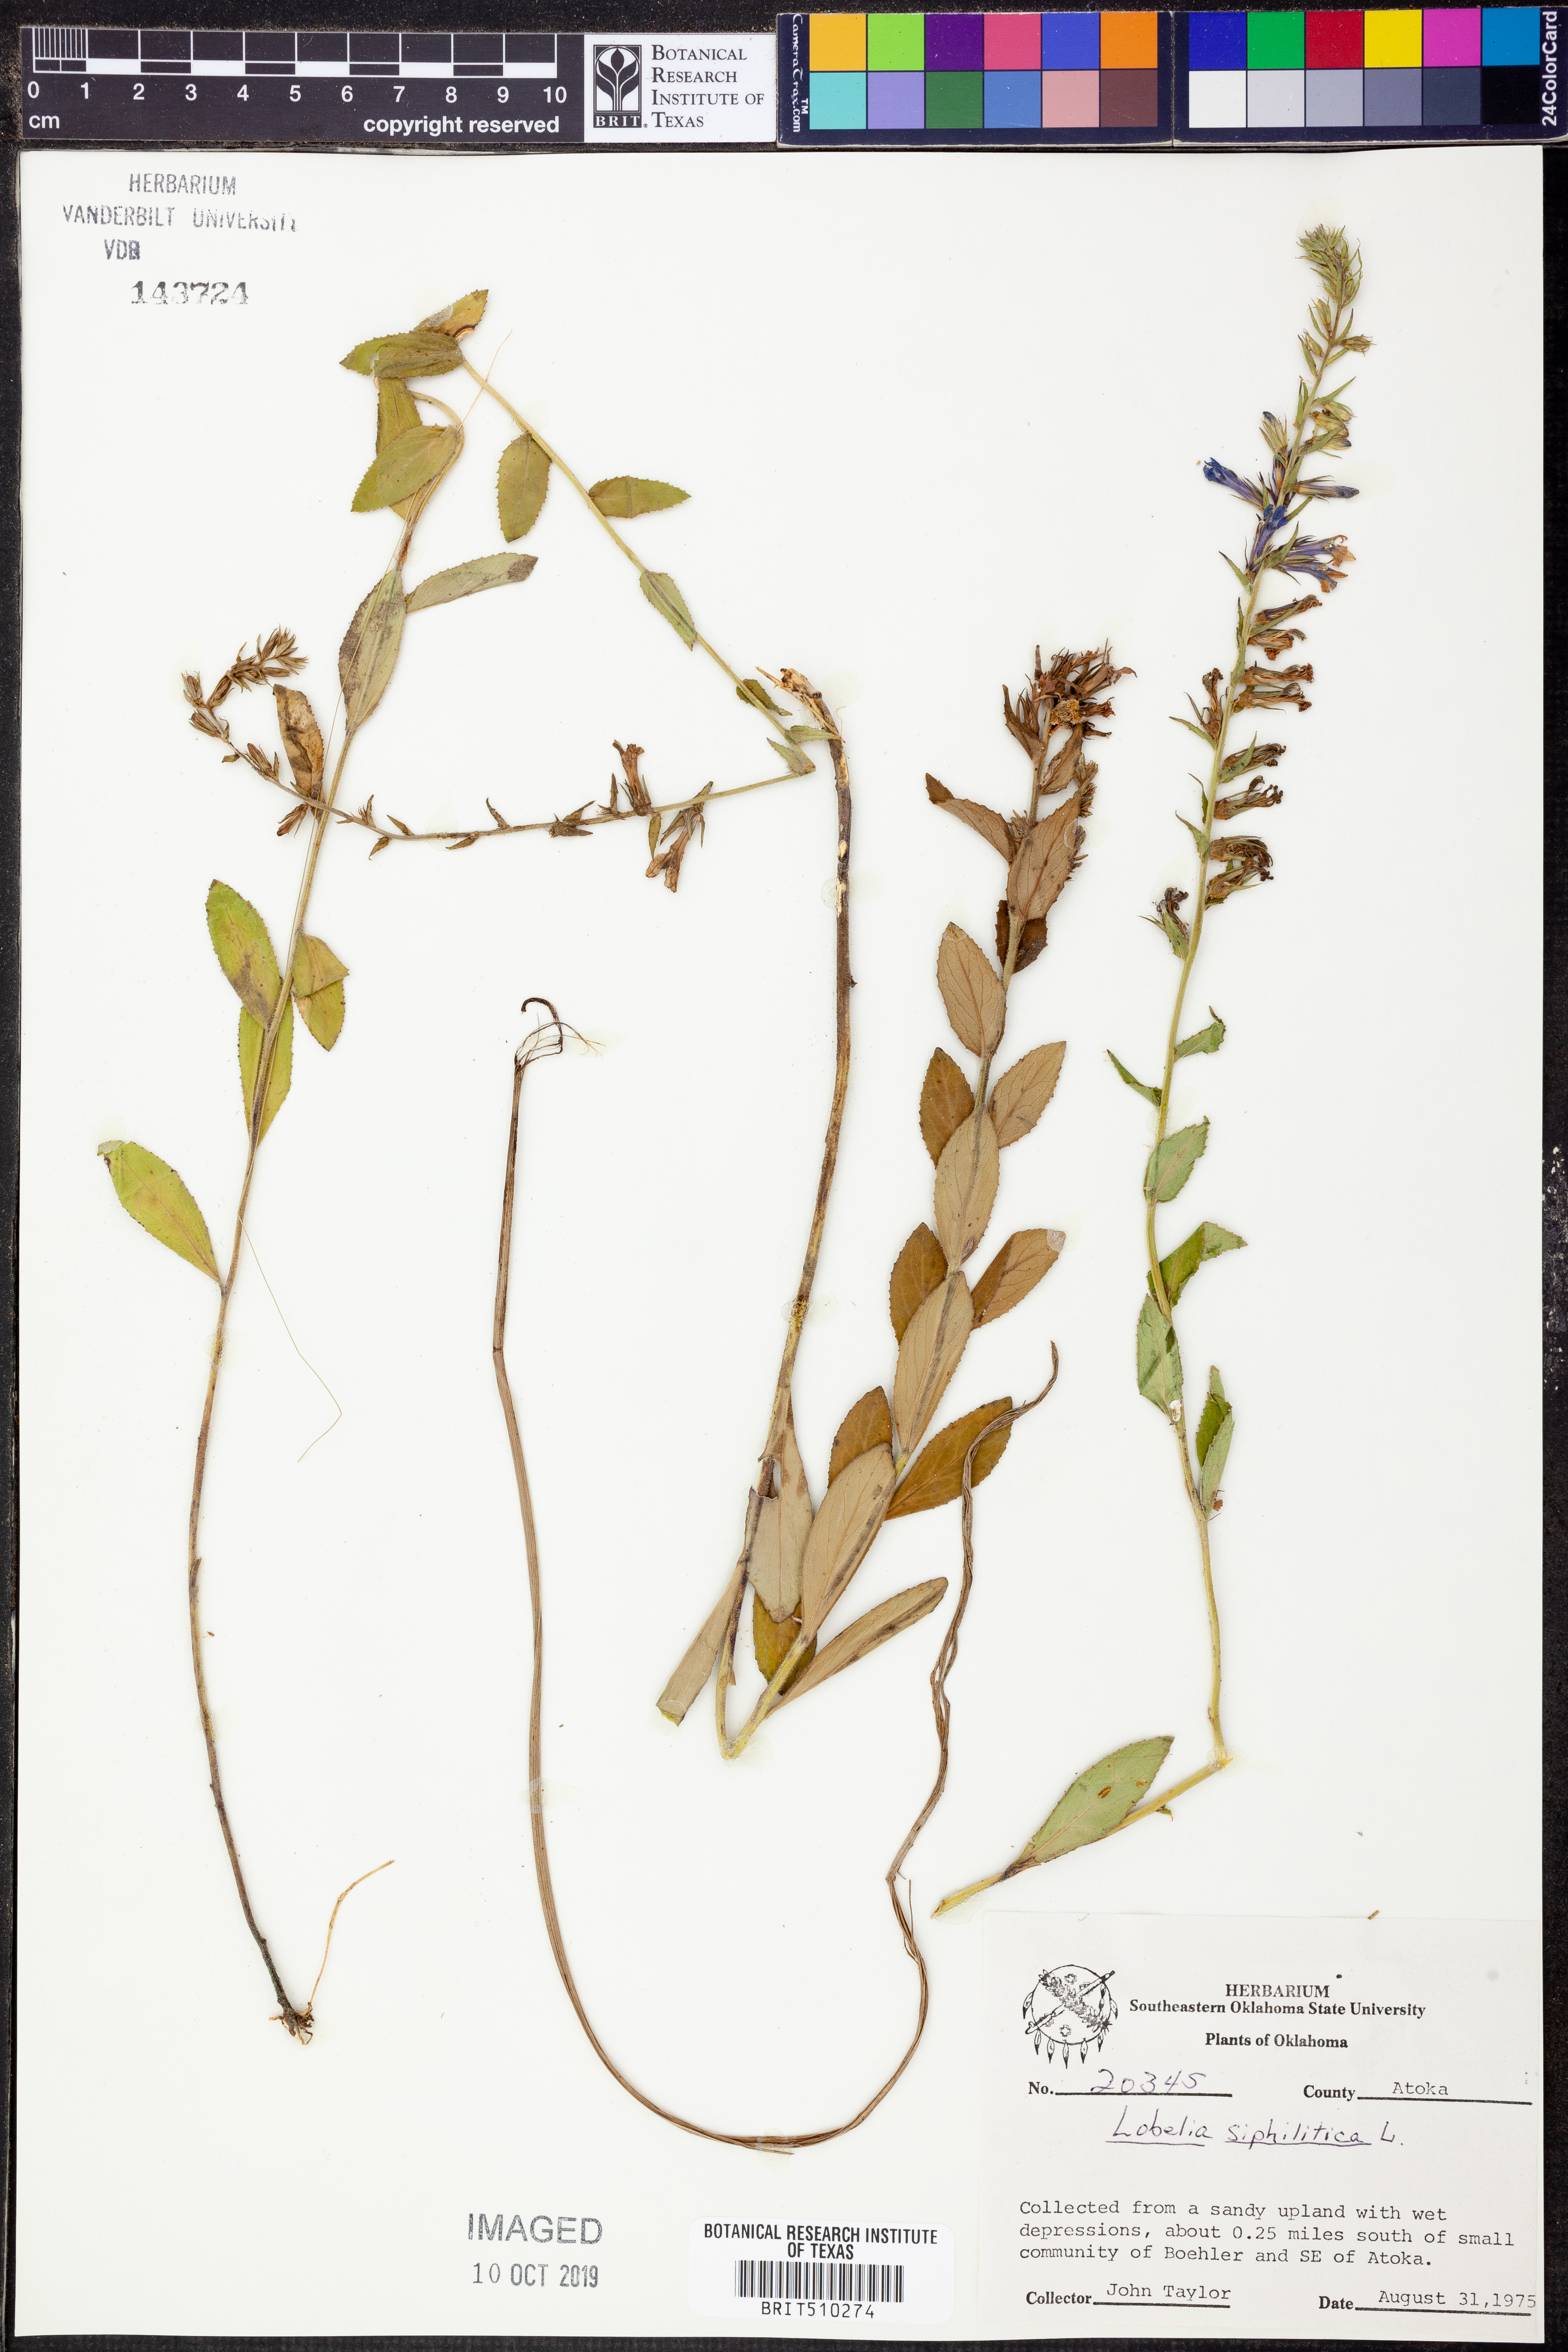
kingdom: Plantae
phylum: Tracheophyta
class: Magnoliopsida
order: Asterales
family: Campanulaceae
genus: Lobelia
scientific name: Lobelia siphilitica
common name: Great lobelia
